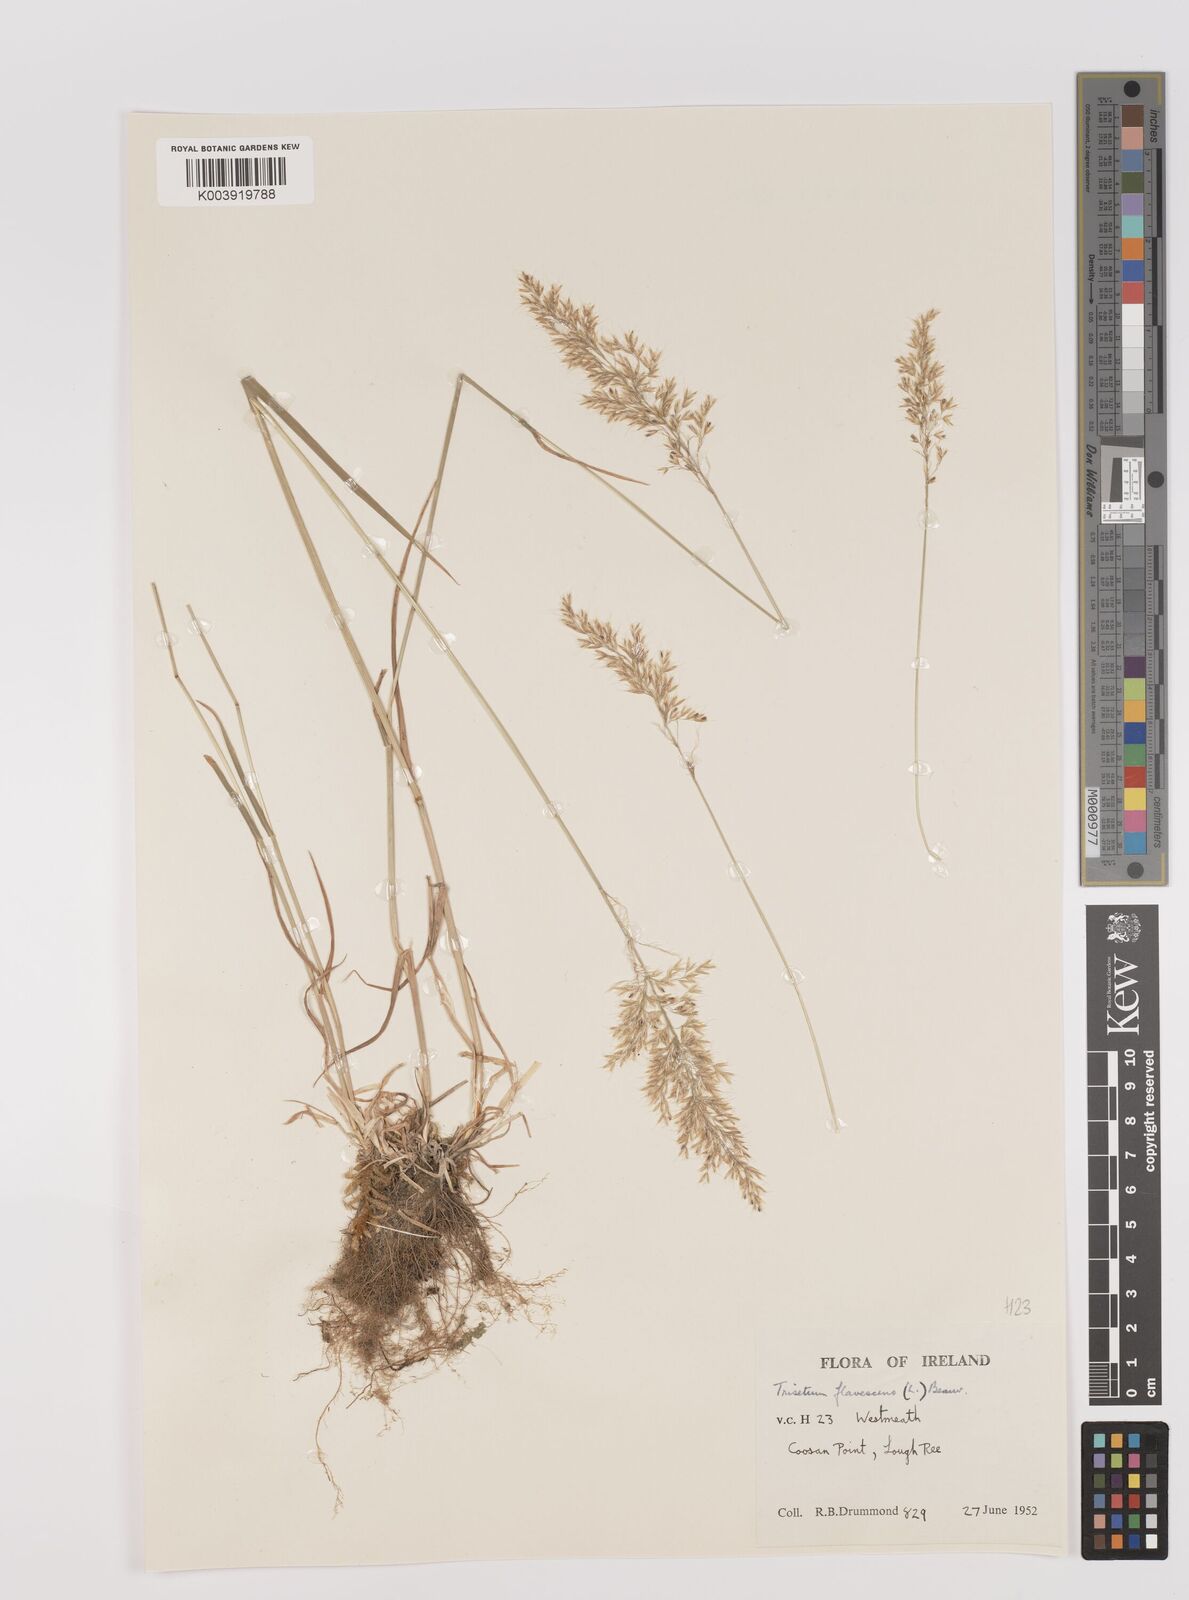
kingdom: Plantae
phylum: Tracheophyta
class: Liliopsida
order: Poales
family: Poaceae
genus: Trisetum
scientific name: Trisetum flavescens
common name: Yellow oat-grass
